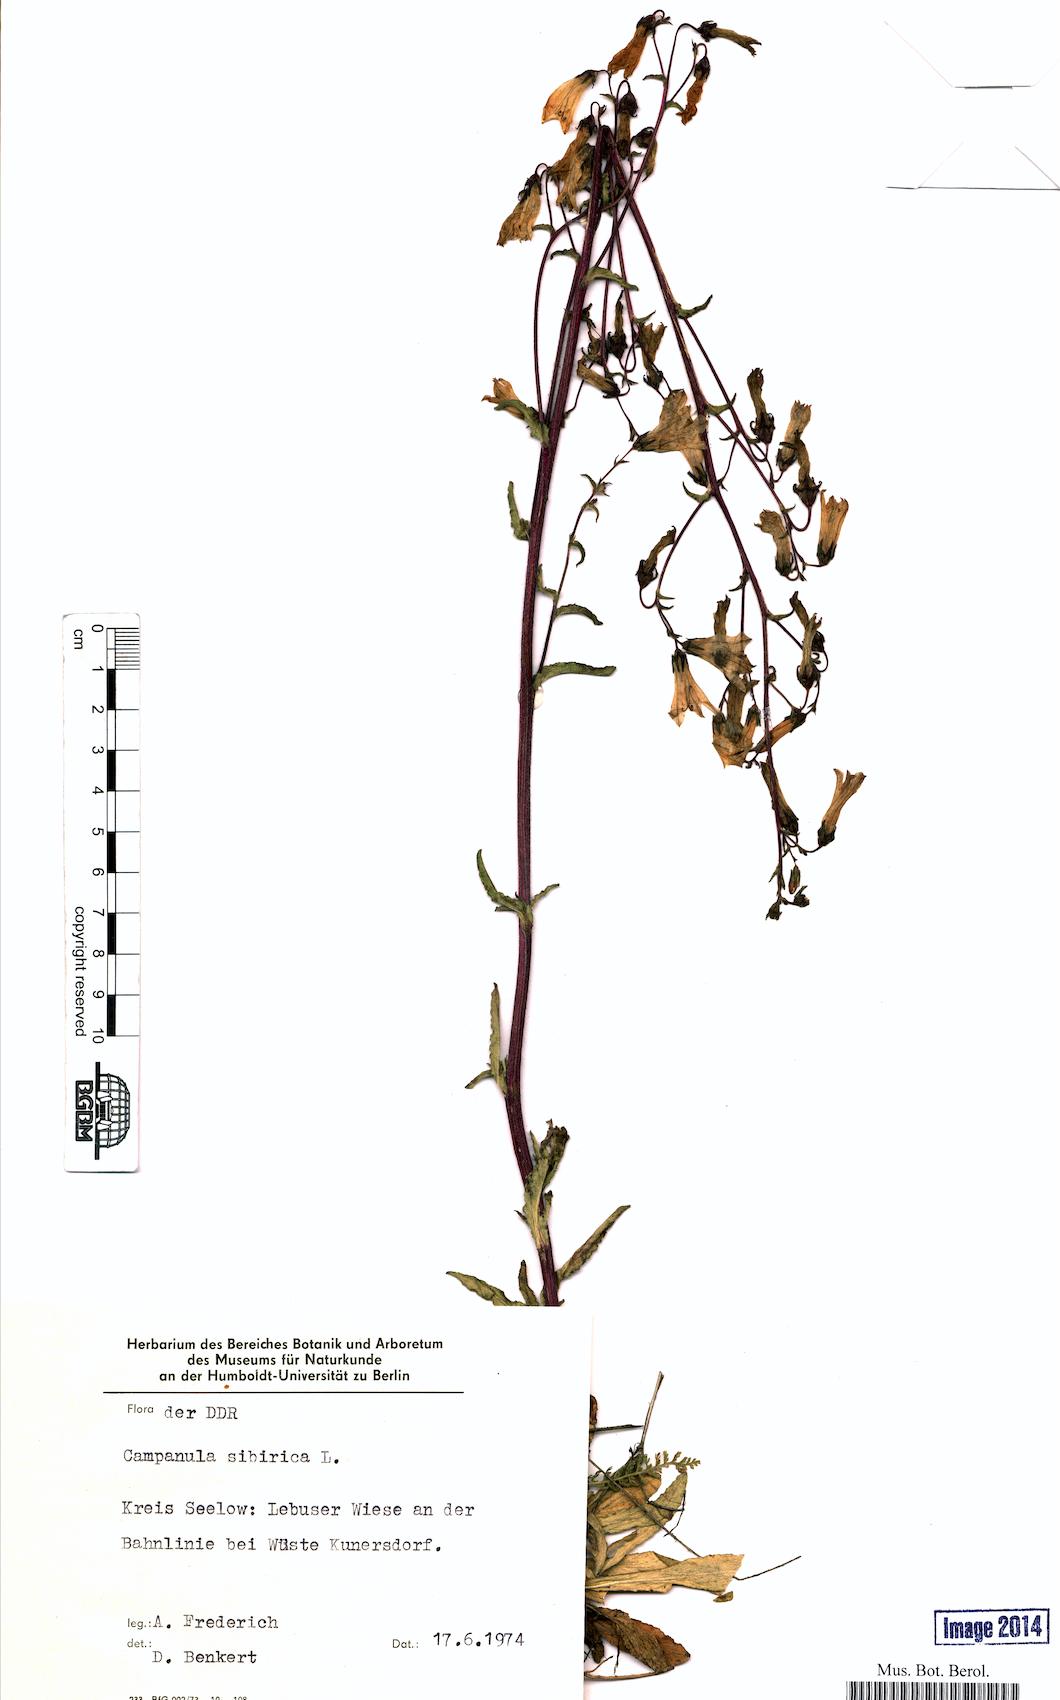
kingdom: Plantae
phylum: Tracheophyta
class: Magnoliopsida
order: Asterales
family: Campanulaceae
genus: Campanula
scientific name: Campanula sibirica
